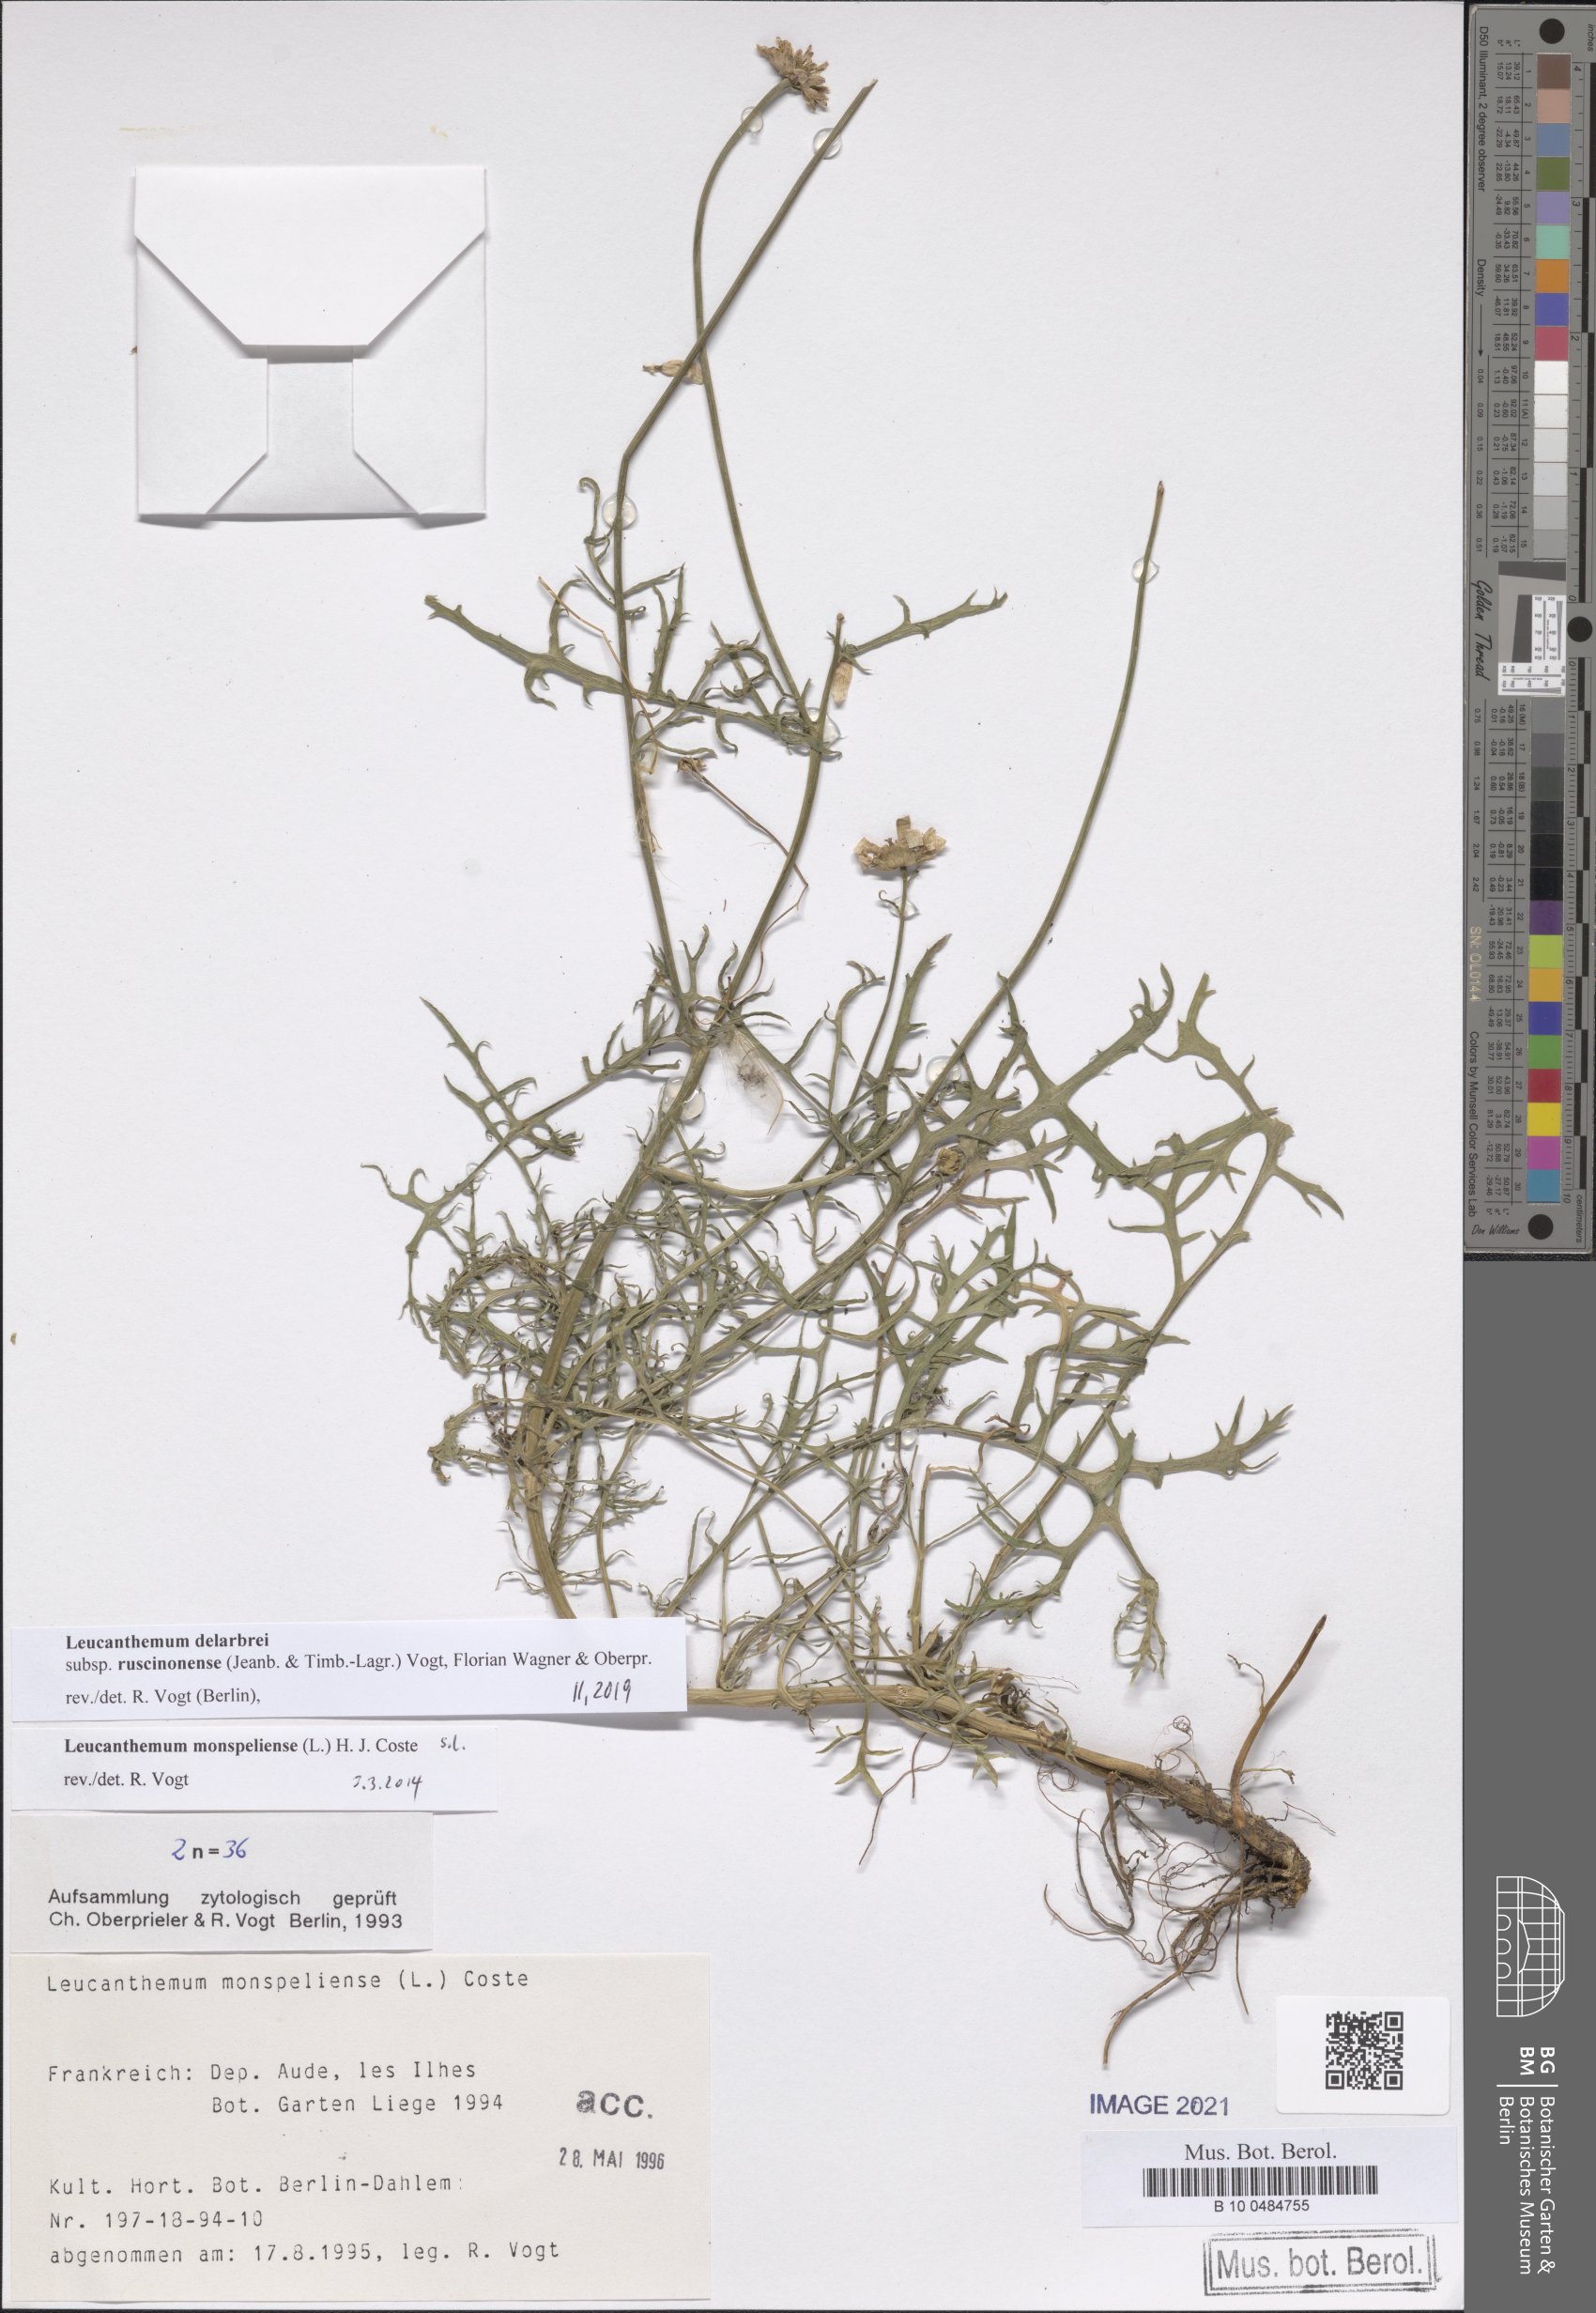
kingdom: Plantae
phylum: Tracheophyta
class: Magnoliopsida
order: Asterales
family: Asteraceae
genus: Leucanthemum
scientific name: Leucanthemum delarbrei
